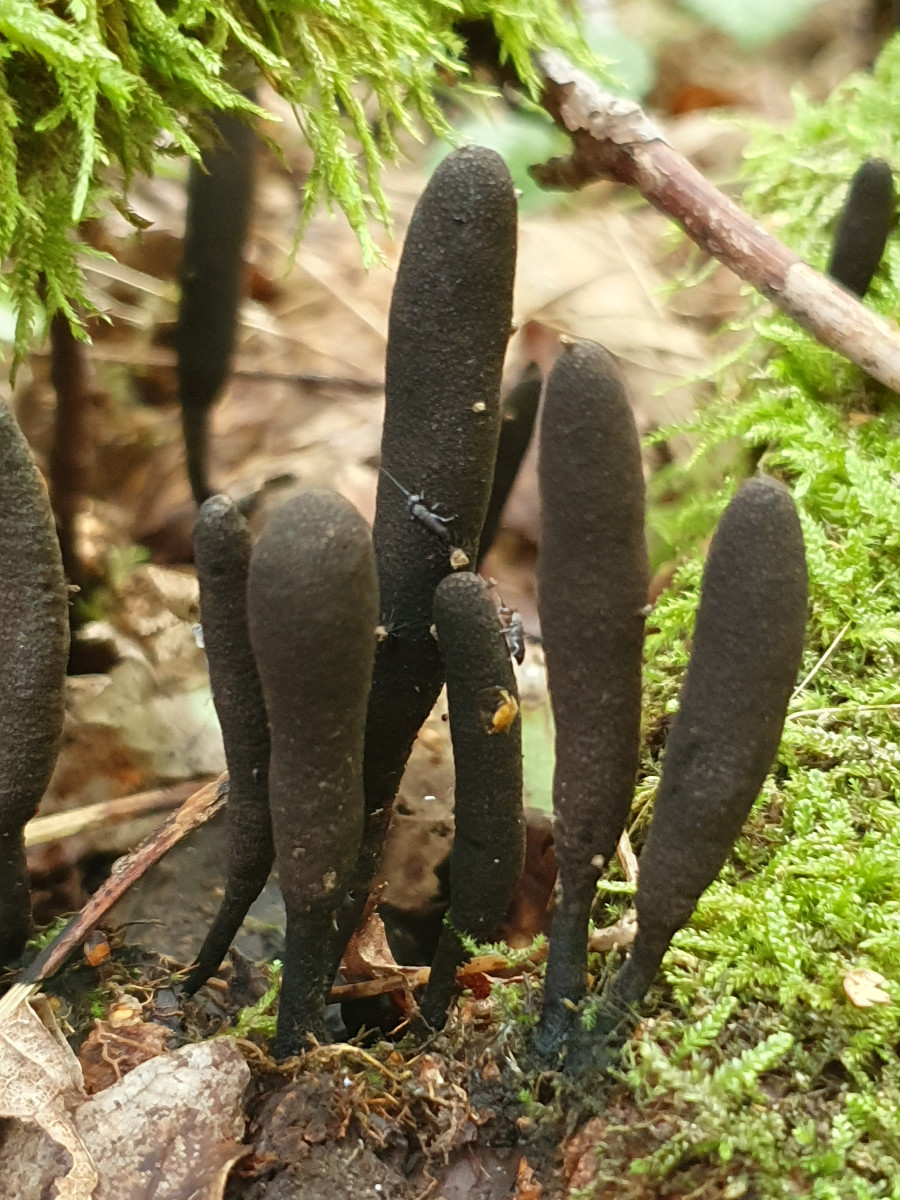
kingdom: Fungi
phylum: Ascomycota
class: Sordariomycetes
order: Xylariales
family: Xylariaceae
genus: Xylaria
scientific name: Xylaria longipes
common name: slank stødsvamp
